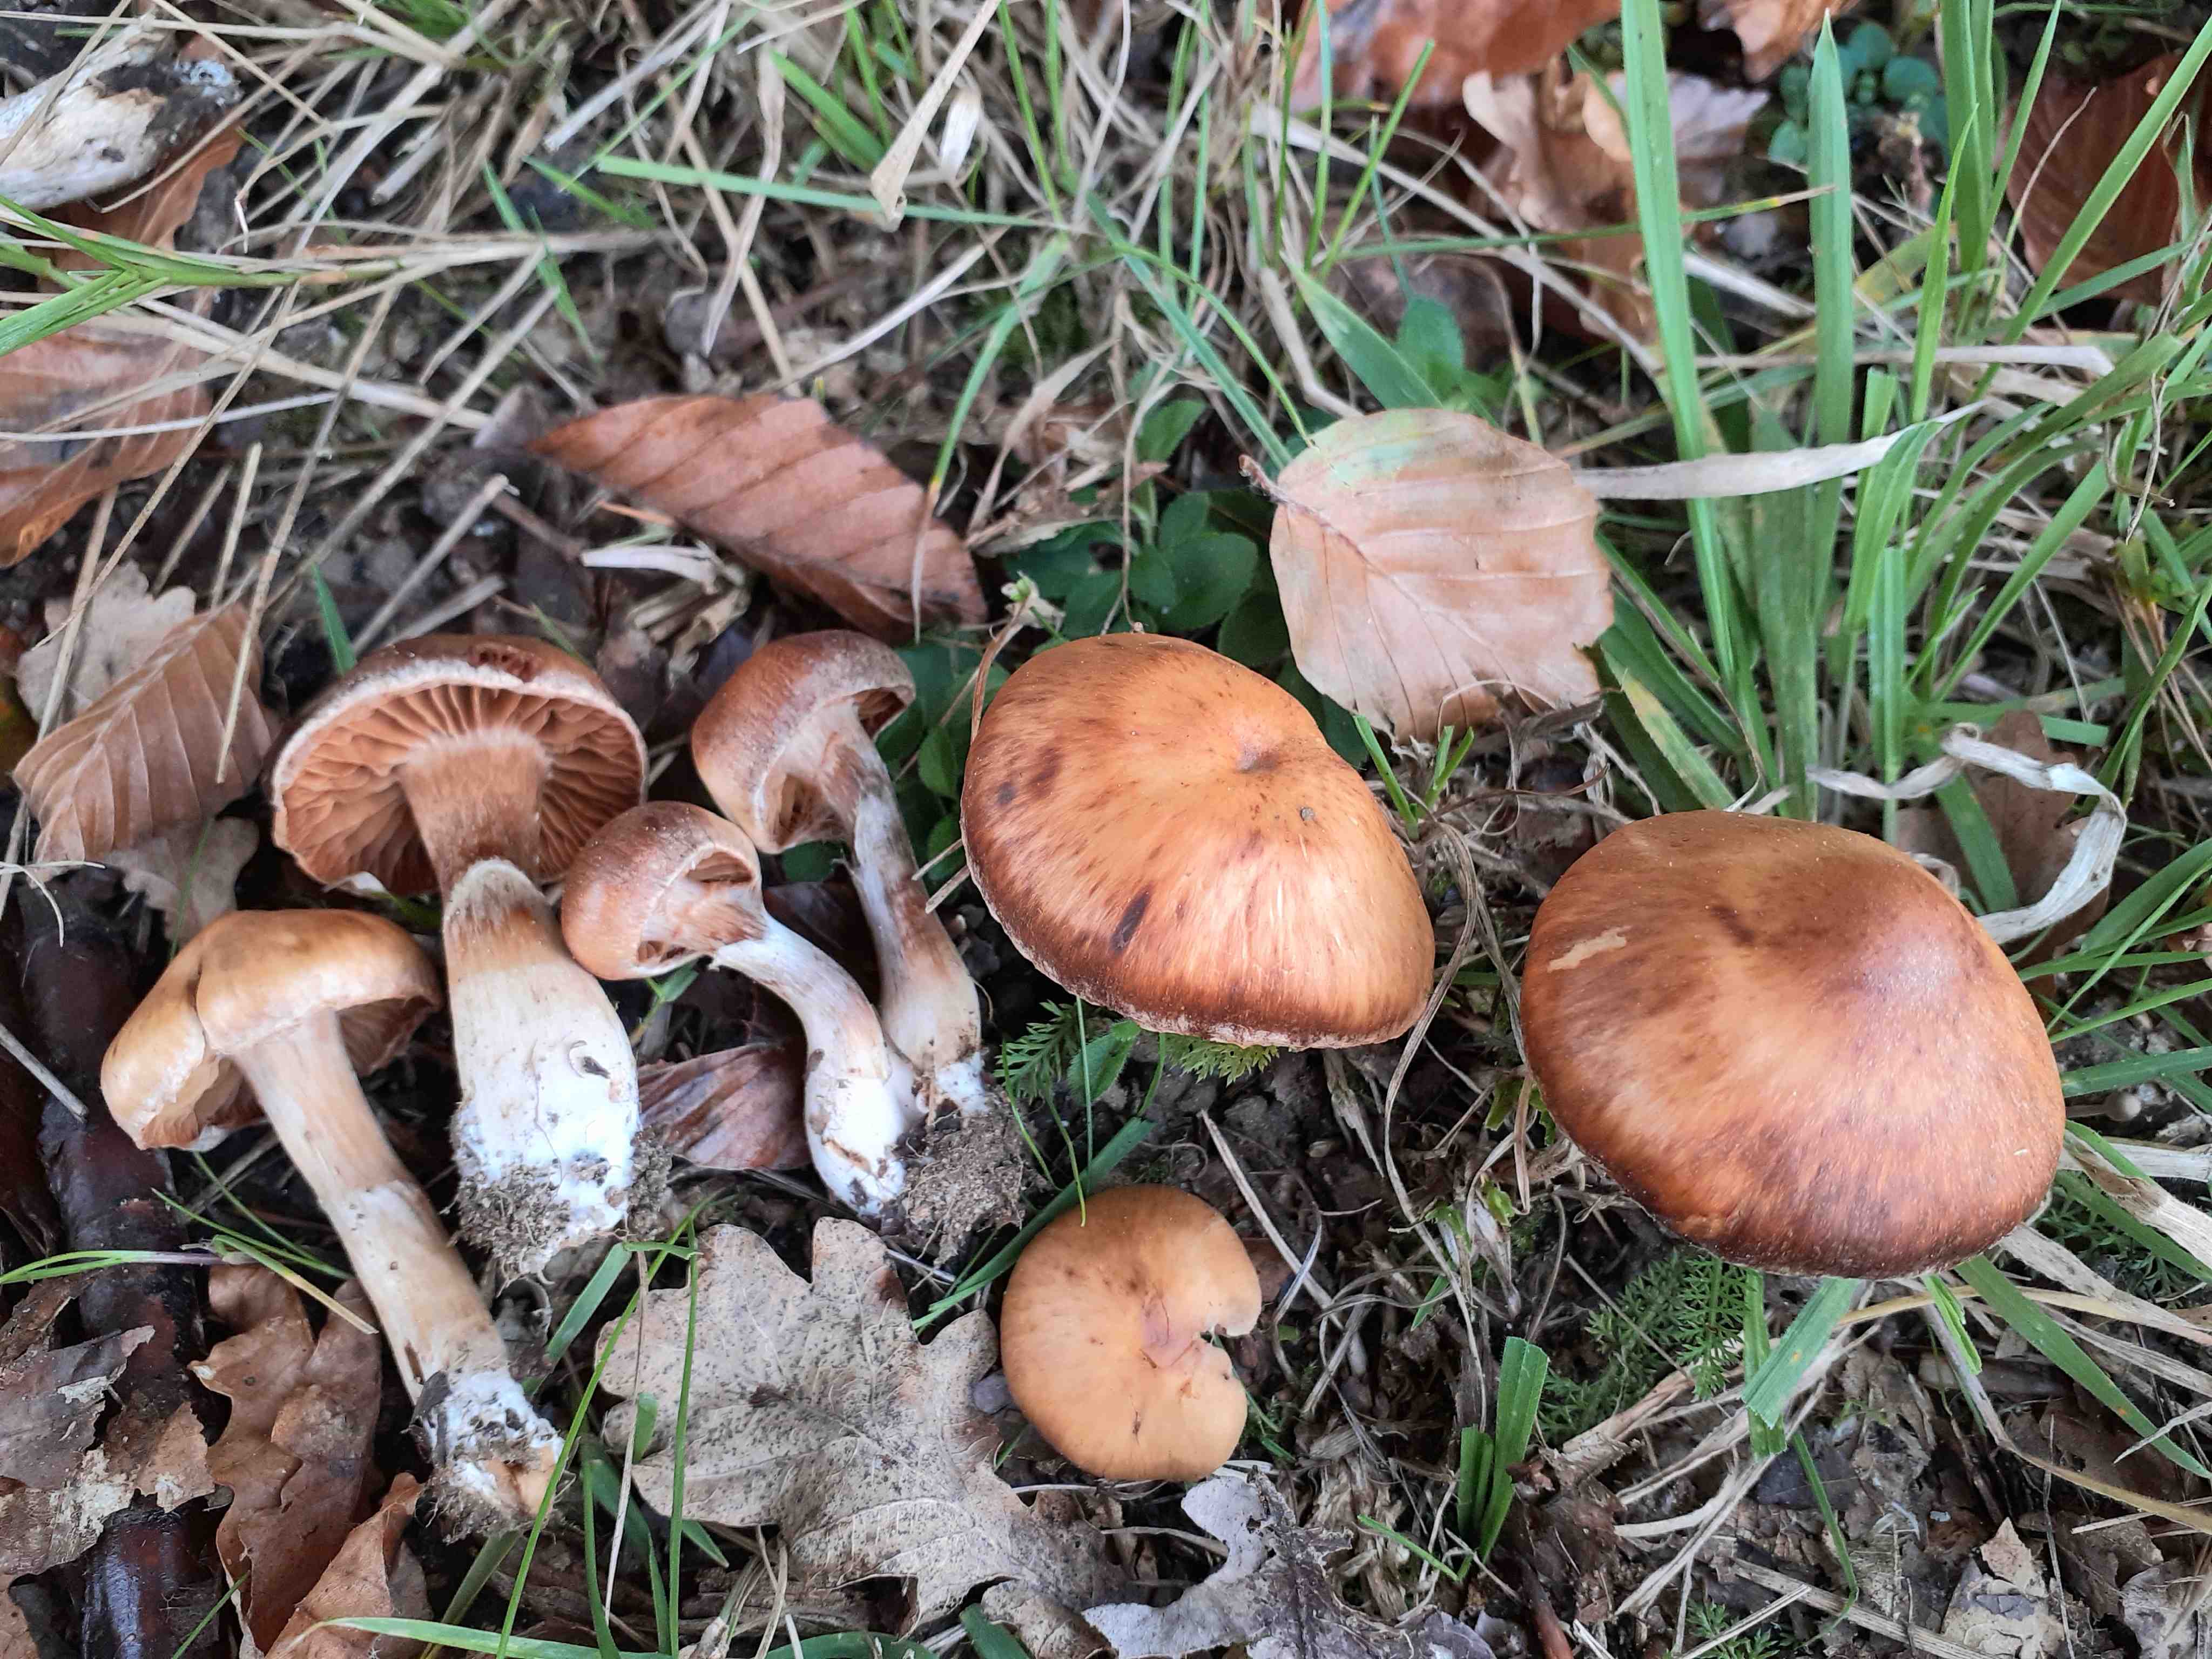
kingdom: Fungi
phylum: Basidiomycota
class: Agaricomycetes
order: Agaricales
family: Cortinariaceae
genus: Cortinarius
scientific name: Cortinarius luridus
